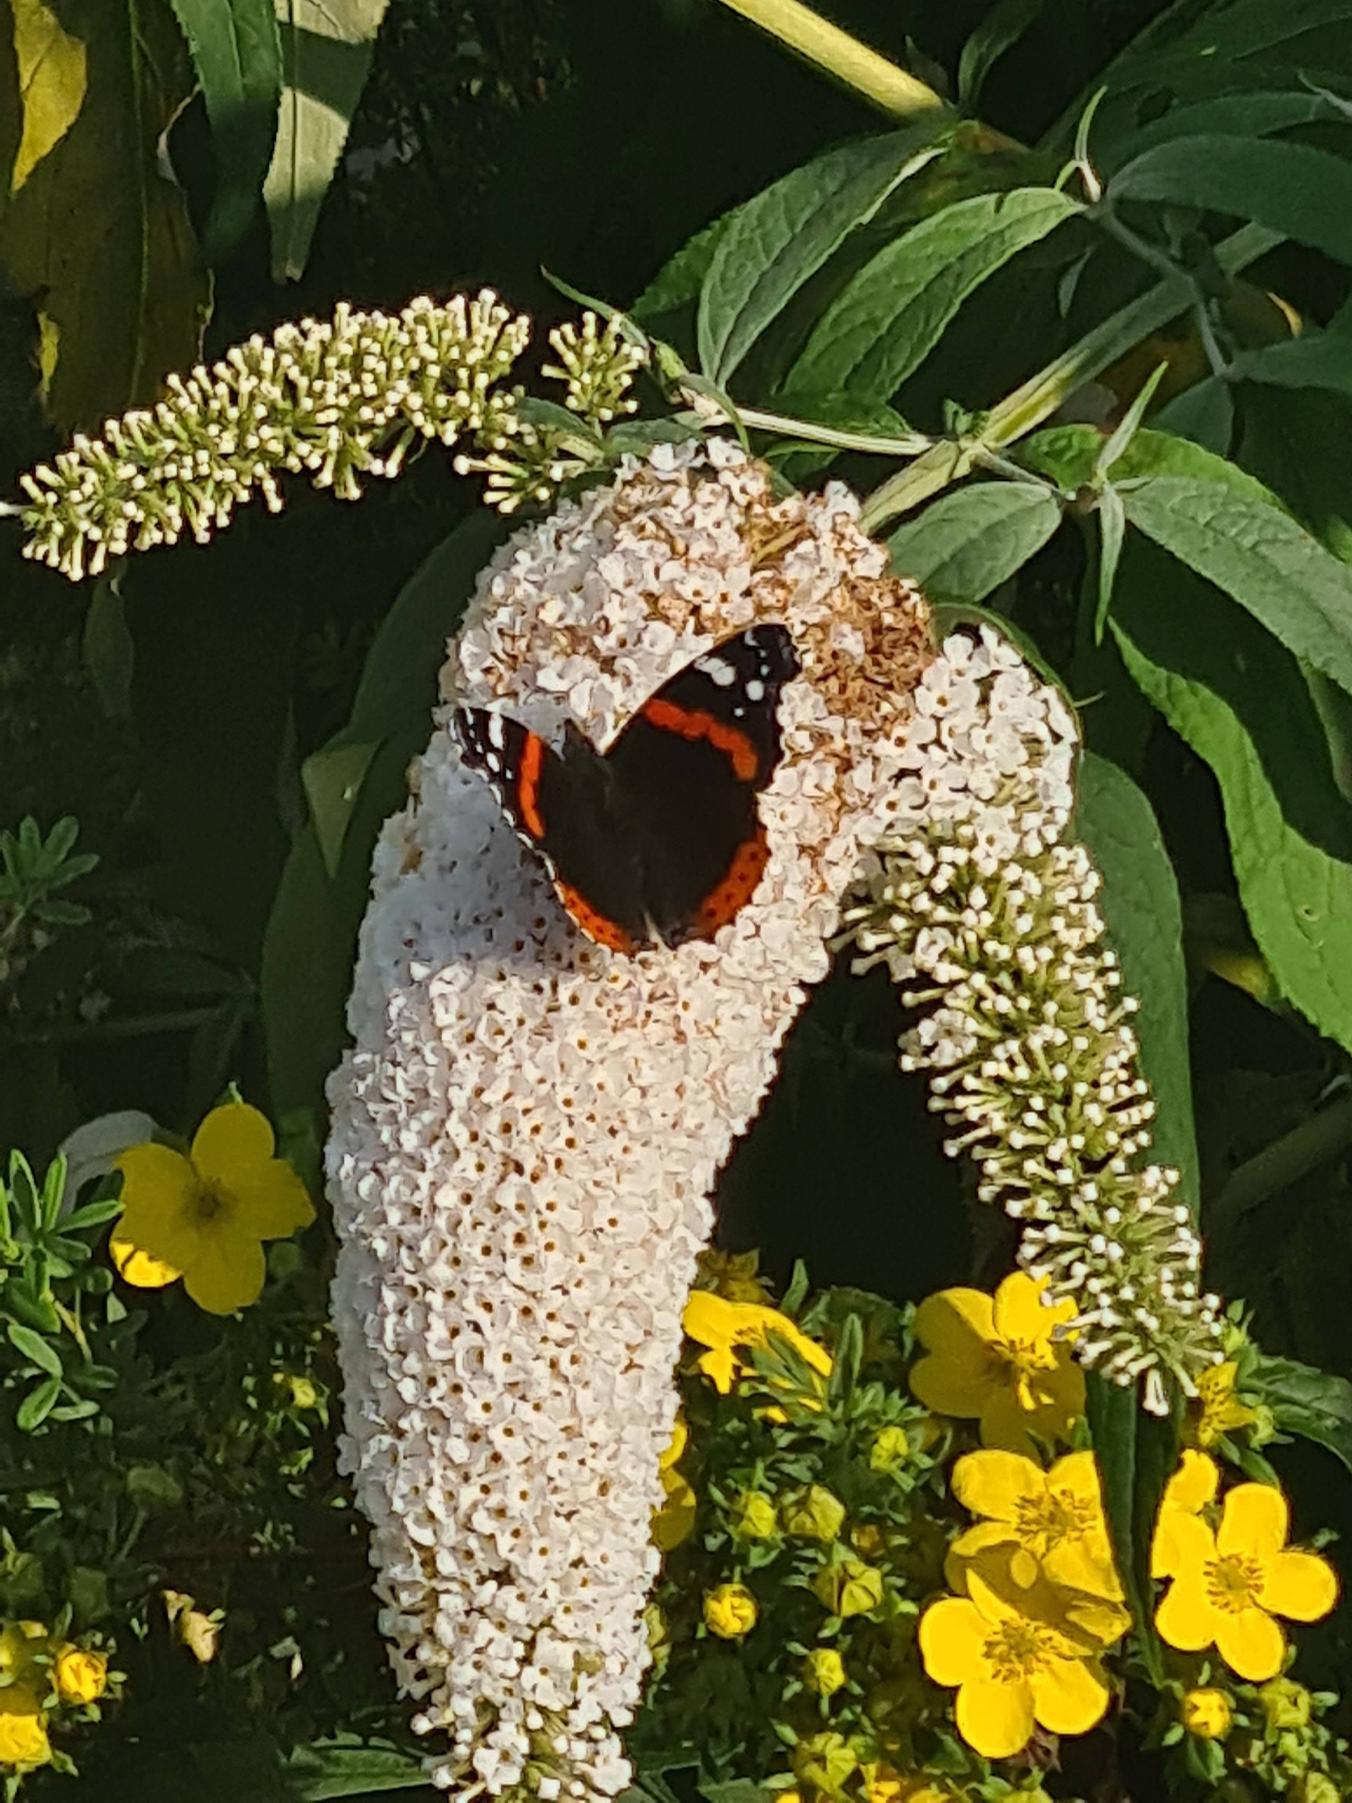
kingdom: Animalia
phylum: Arthropoda
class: Insecta
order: Lepidoptera
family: Nymphalidae
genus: Vanessa
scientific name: Vanessa atalanta
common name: Admiral
